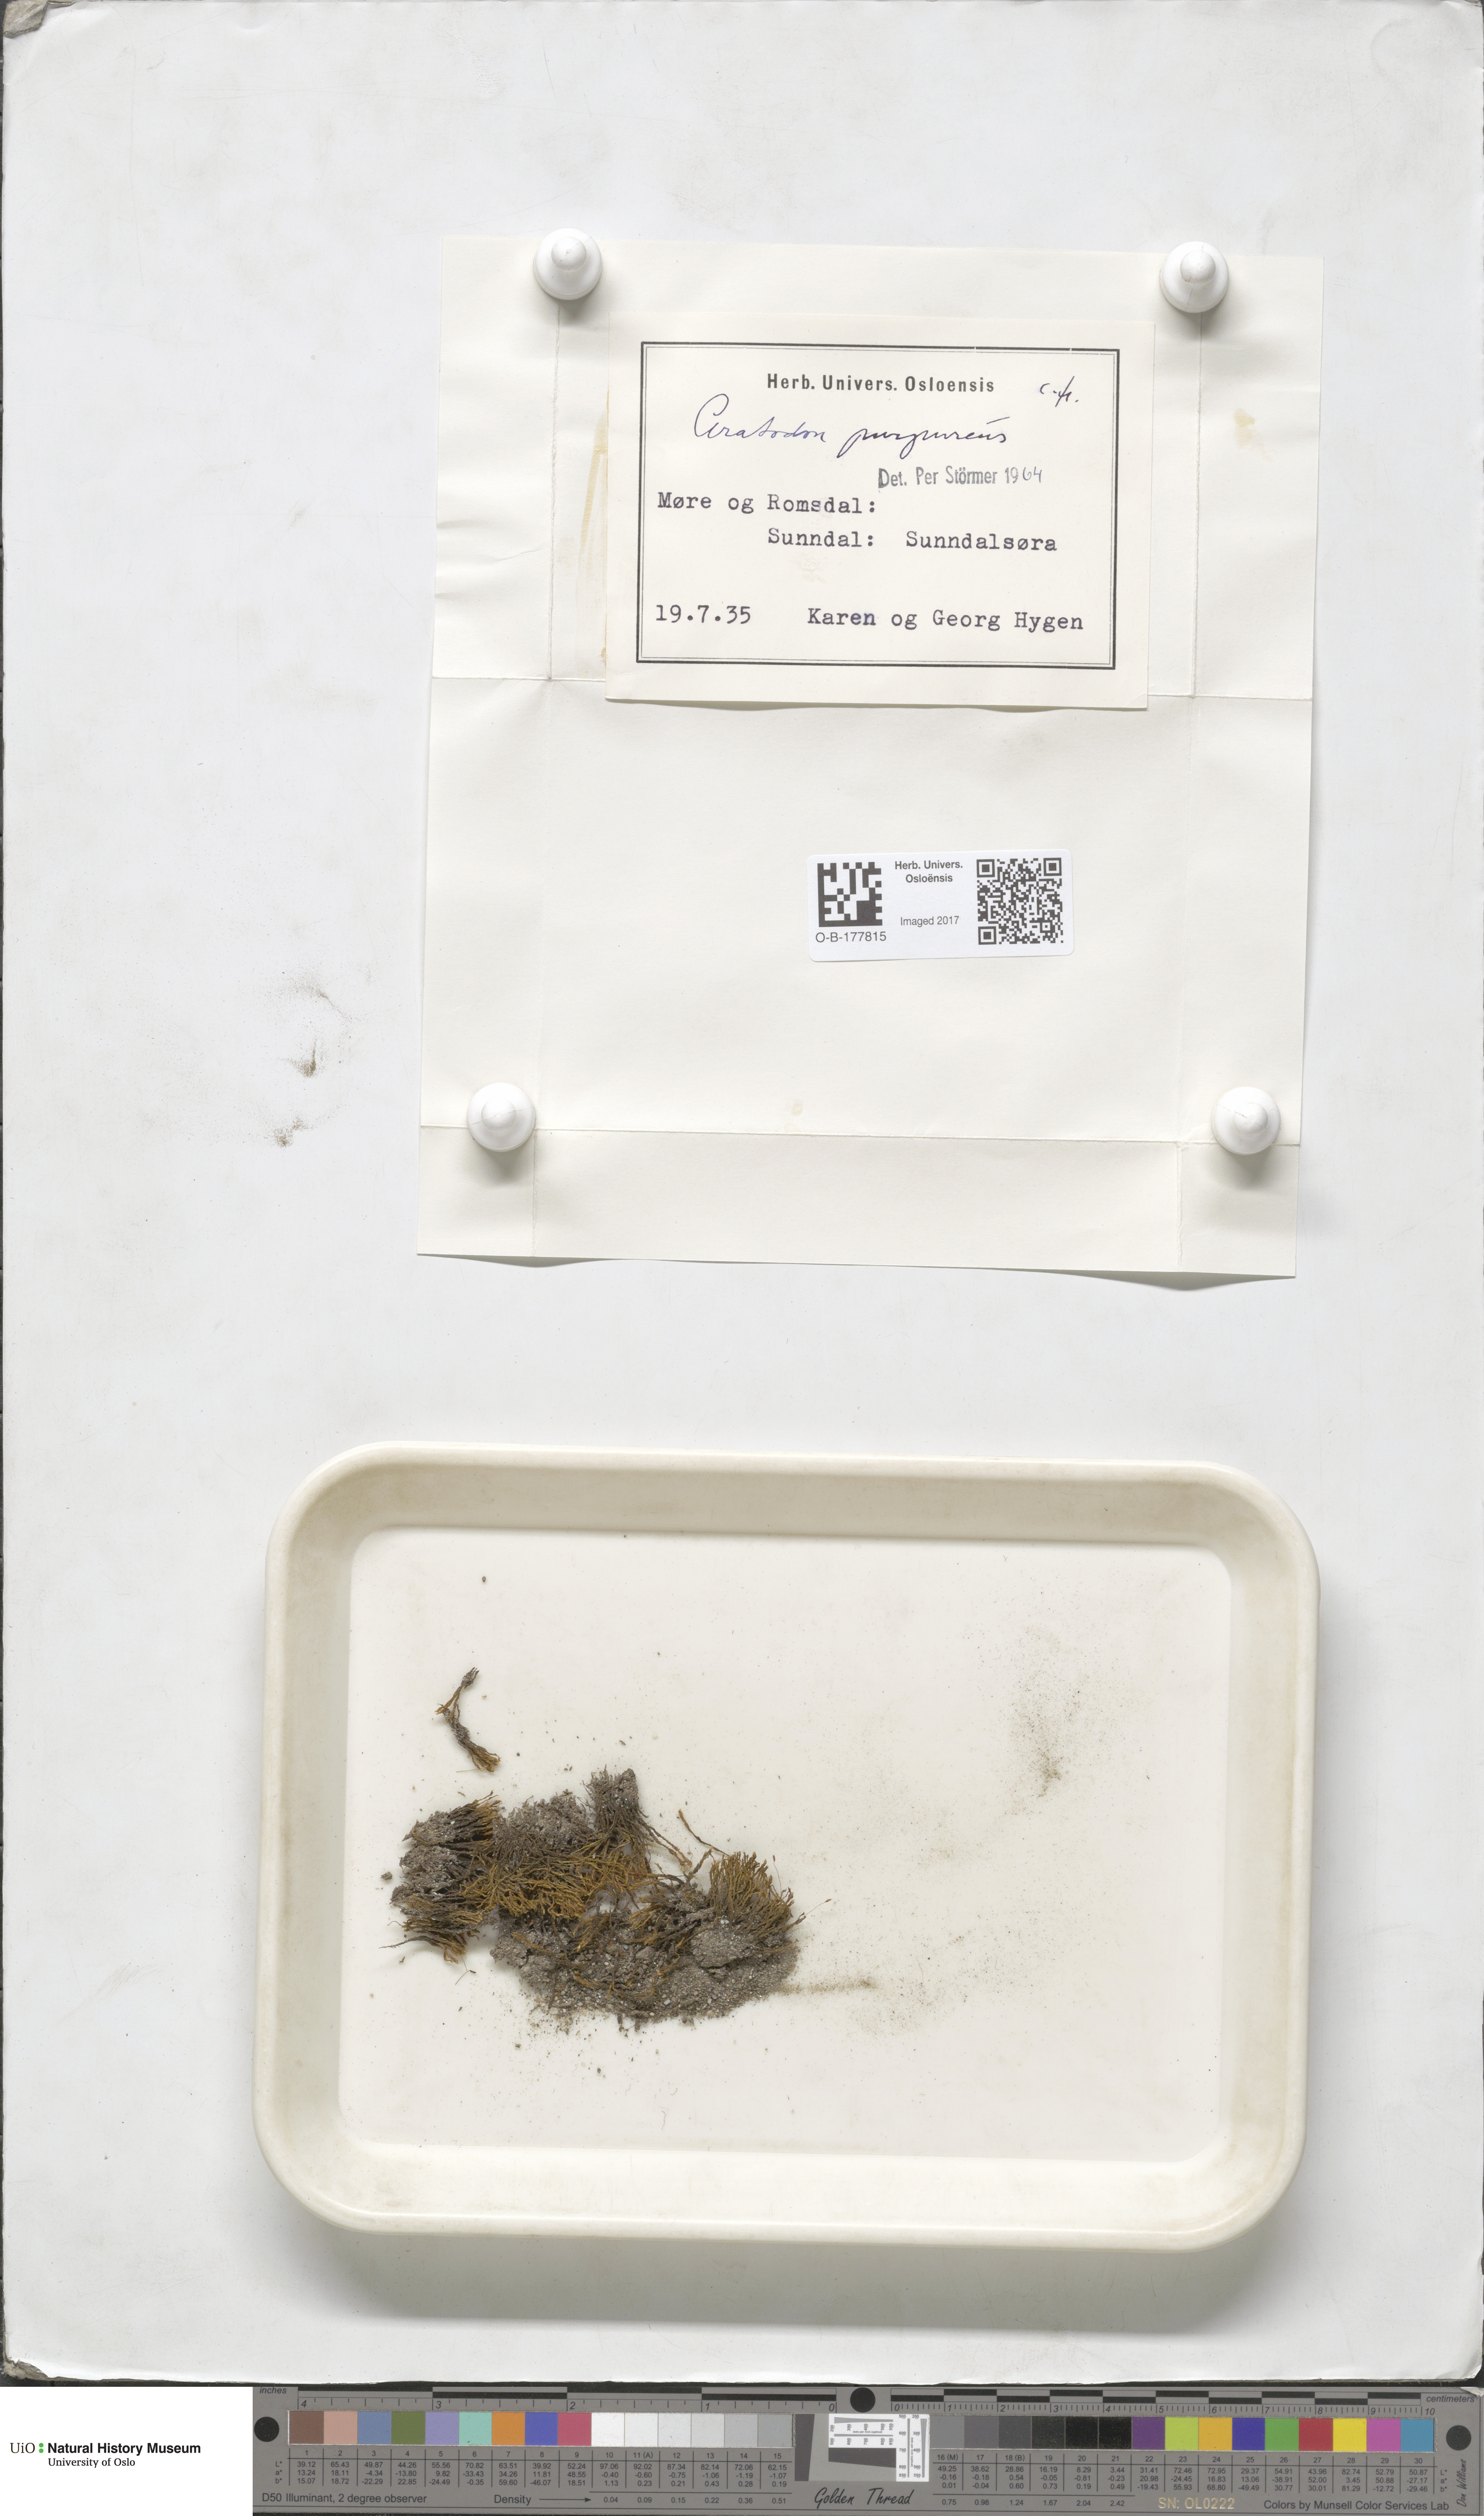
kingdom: Plantae
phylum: Bryophyta
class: Bryopsida
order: Dicranales
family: Ditrichaceae
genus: Ceratodon
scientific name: Ceratodon purpureus
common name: Redshank
